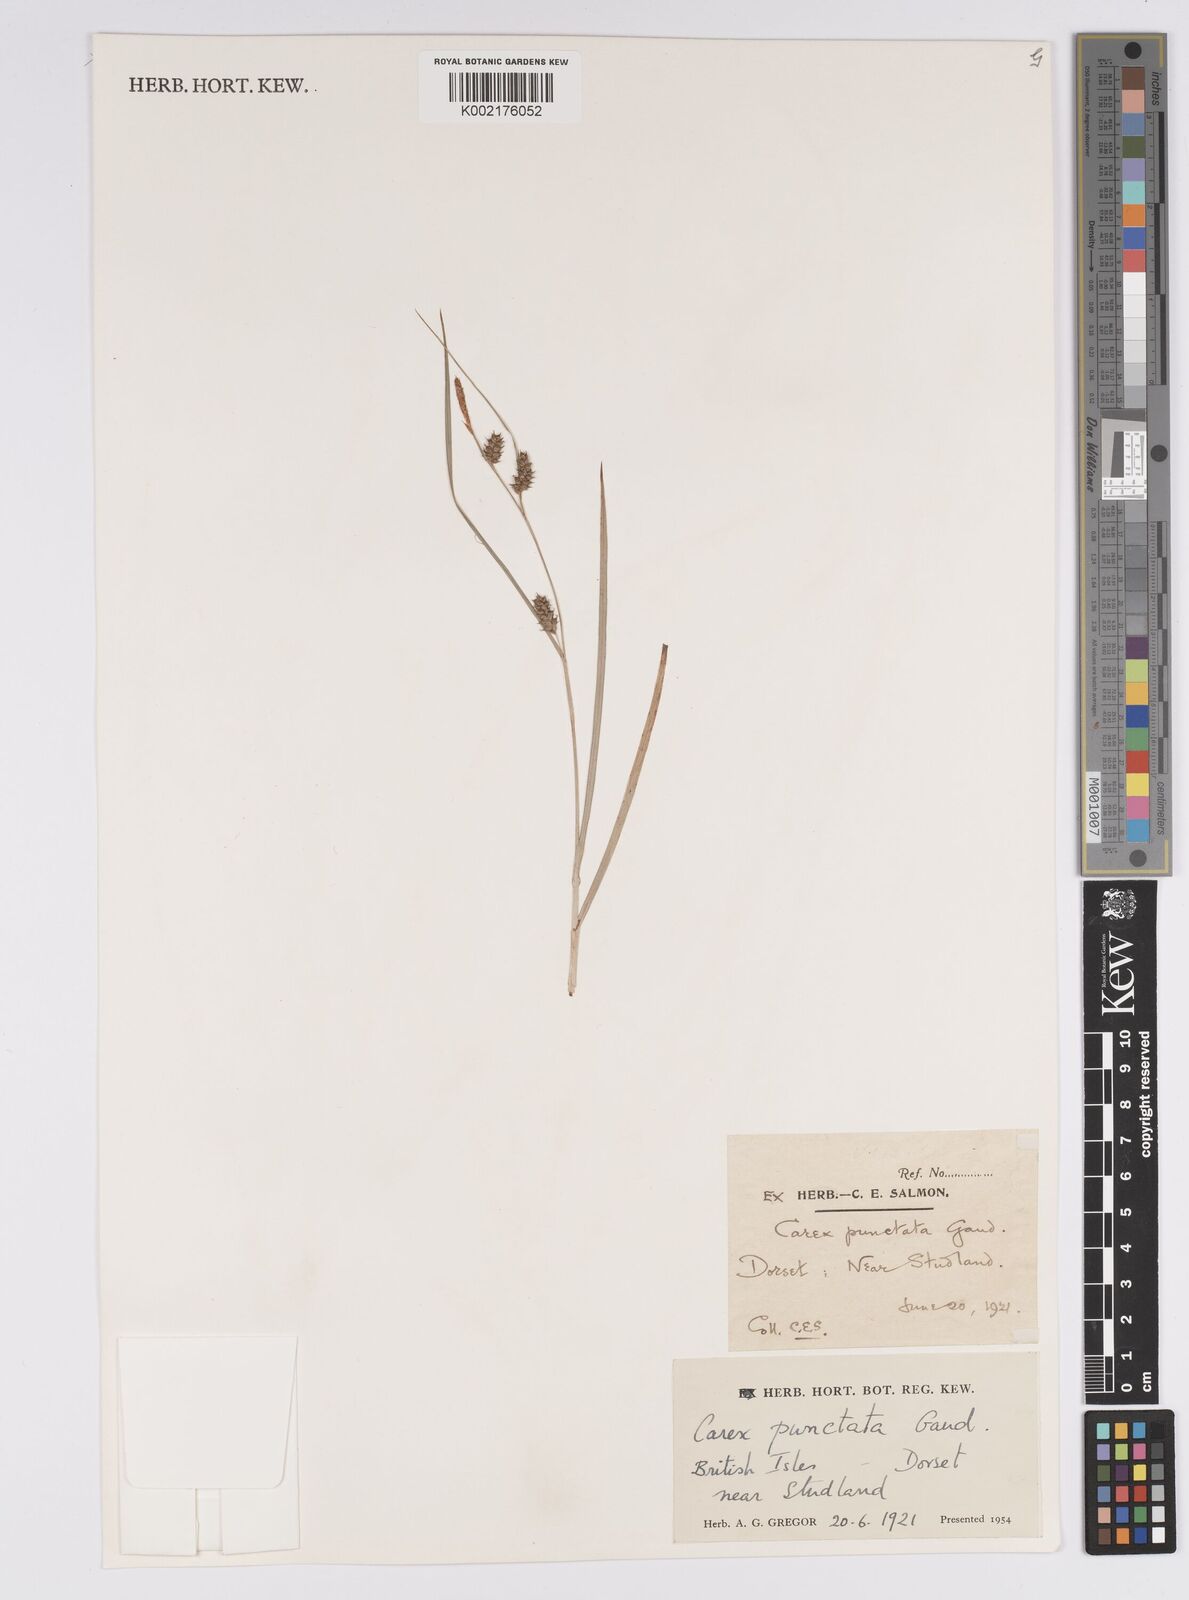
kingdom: Plantae
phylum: Tracheophyta
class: Liliopsida
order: Poales
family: Cyperaceae
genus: Carex
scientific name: Carex punctata
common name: Dotted sedge
